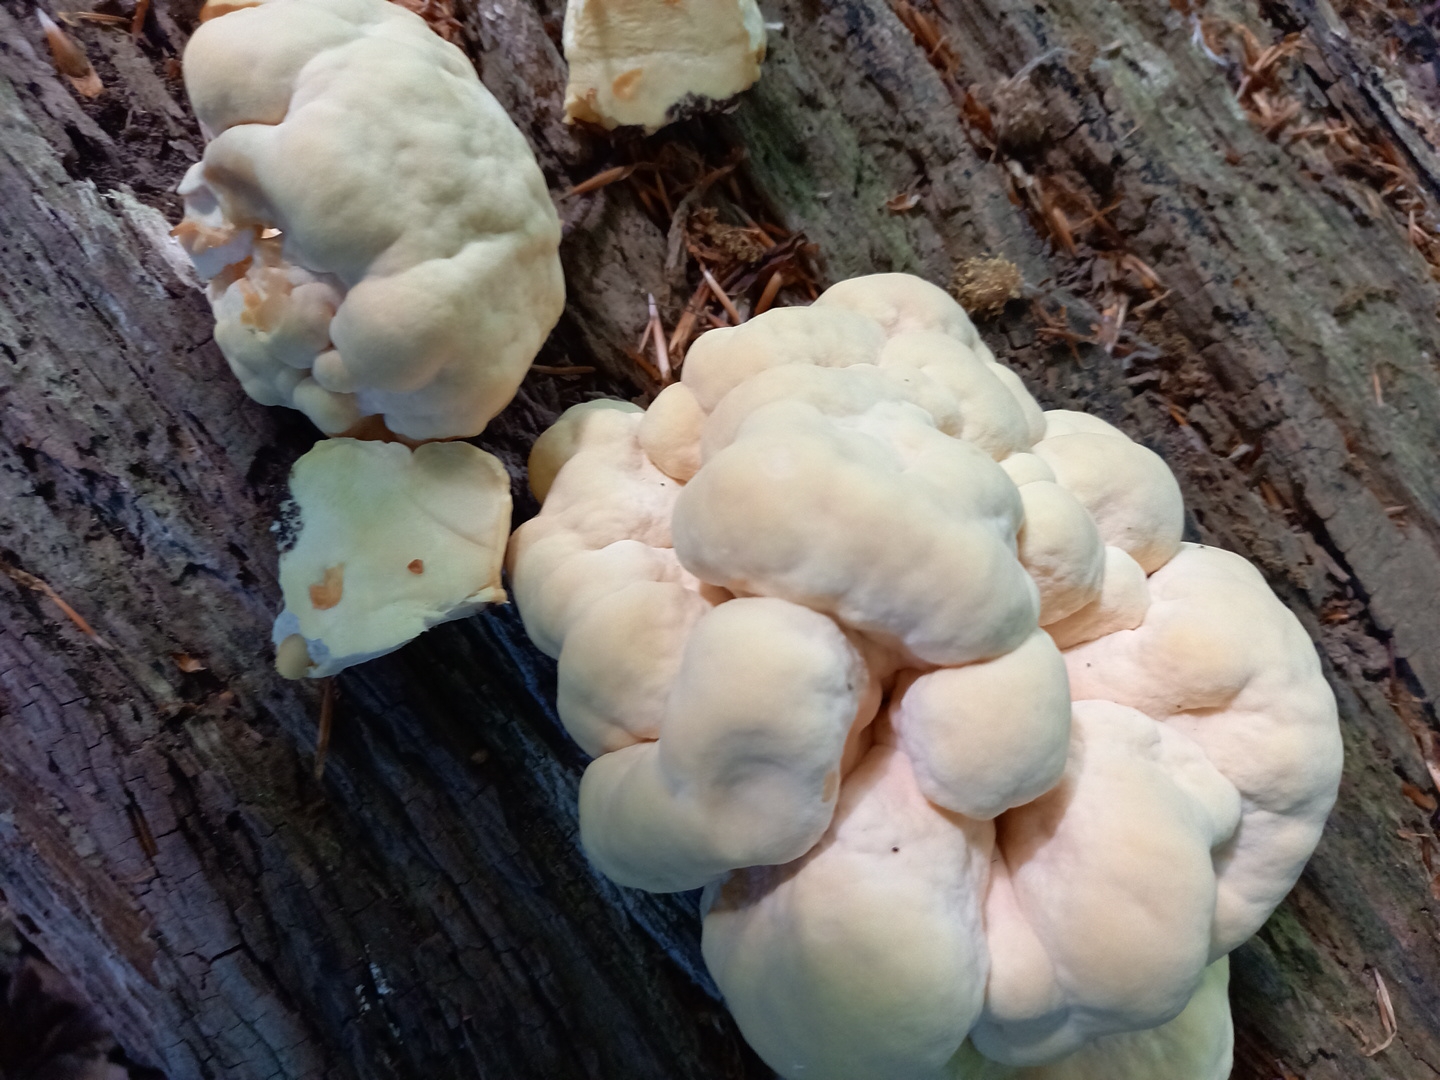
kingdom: Fungi
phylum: Basidiomycota
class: Agaricomycetes
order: Polyporales
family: Laetiporaceae
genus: Laetiporus
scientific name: Laetiporus sulphureus
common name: svovlporesvamp
